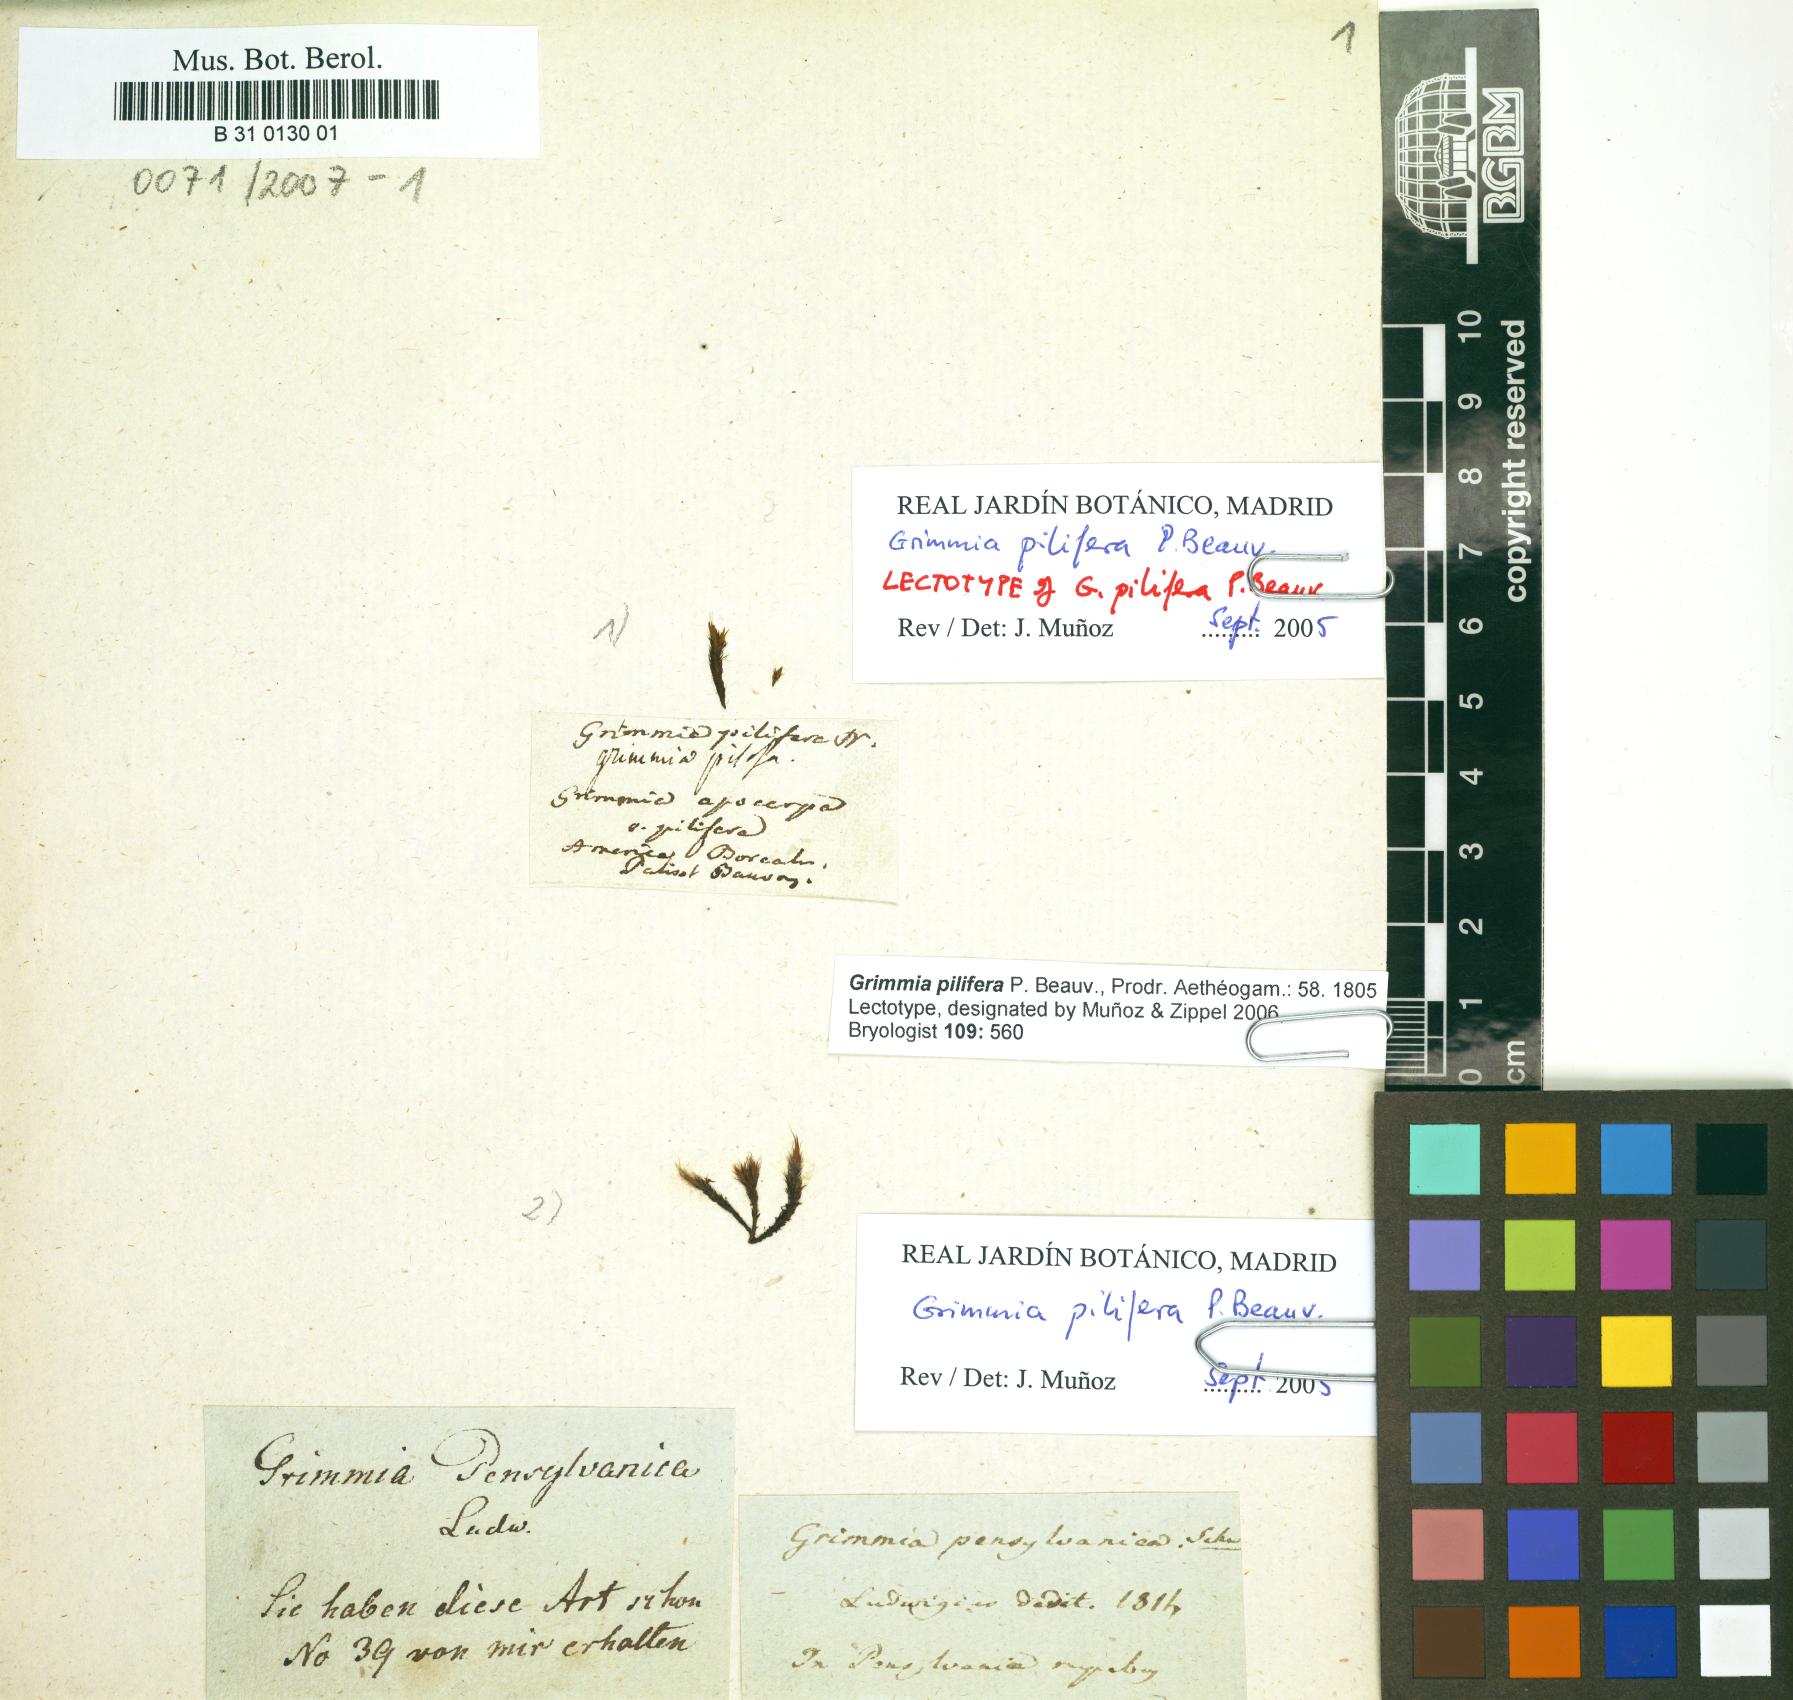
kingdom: Plantae
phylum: Bryophyta
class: Bryopsida
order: Grimmiales
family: Grimmiaceae
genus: Grimmia
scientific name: Grimmia pilifera
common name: Hair grimmia
